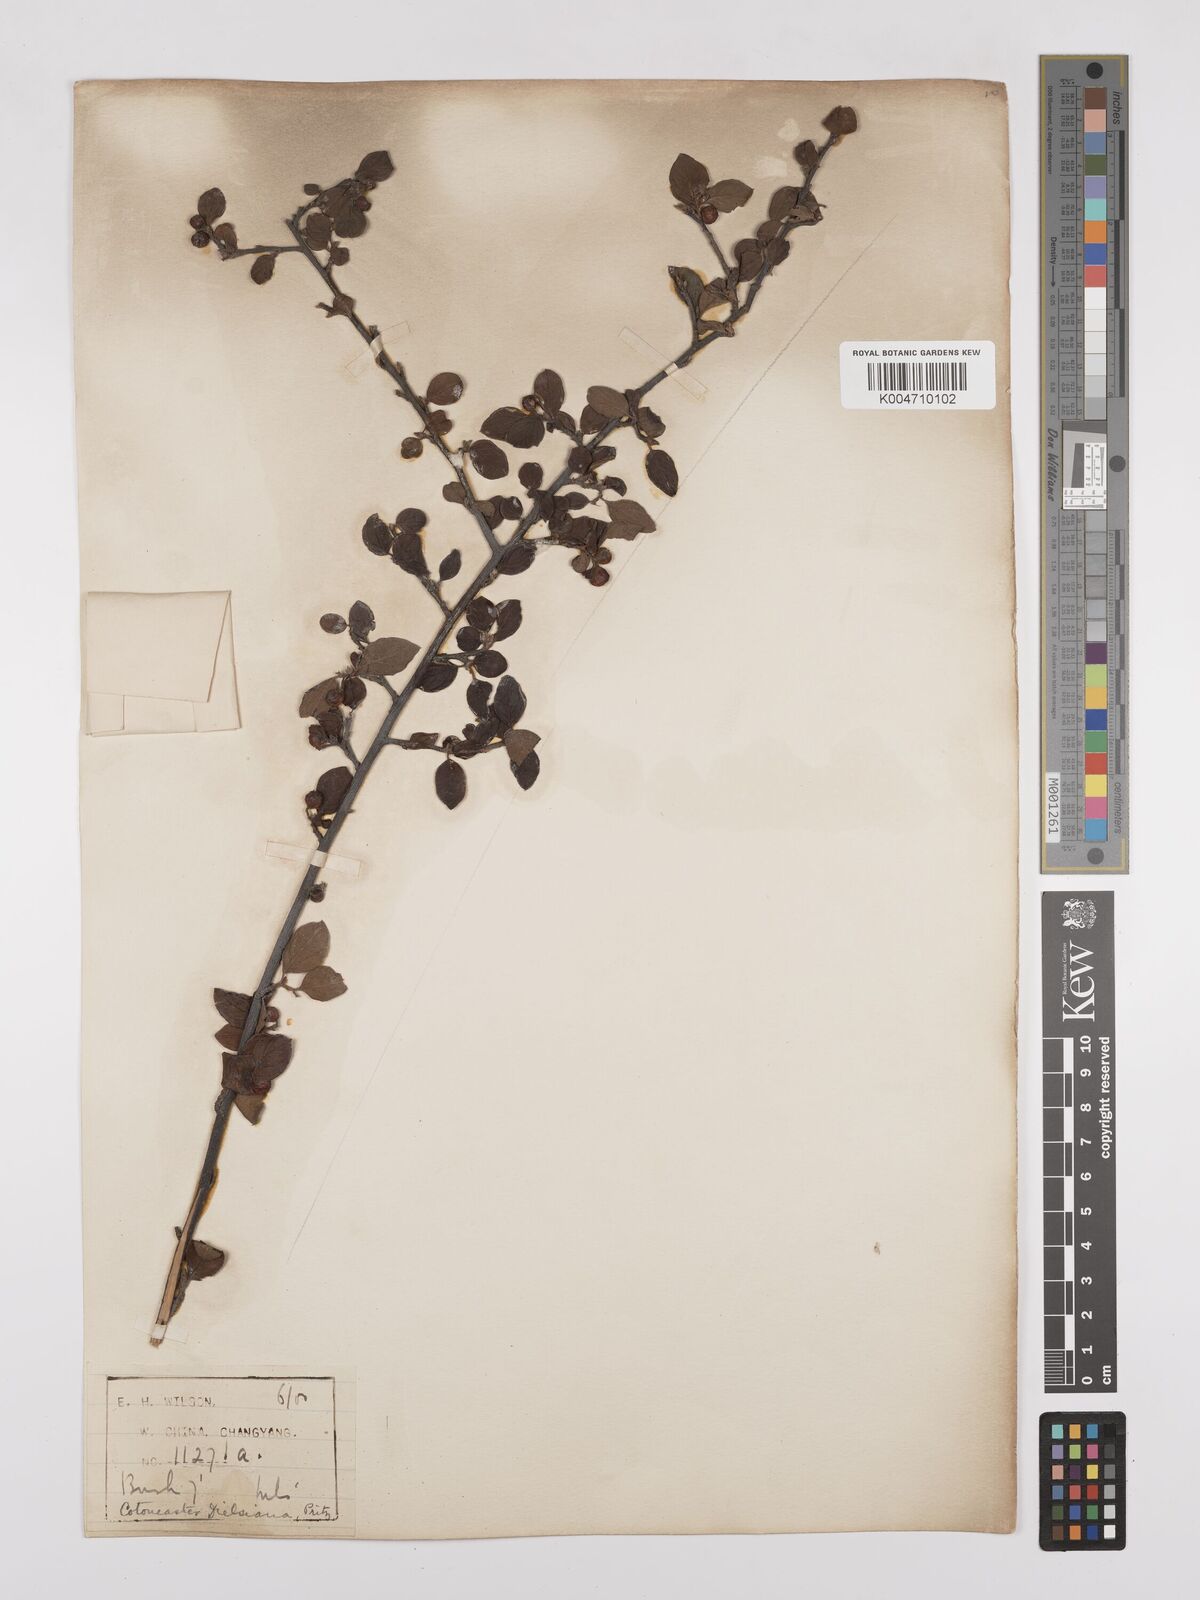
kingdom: Plantae
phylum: Tracheophyta
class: Magnoliopsida
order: Rosales
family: Rosaceae
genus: Cotoneaster
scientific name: Cotoneaster dielsianus
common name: Diels's cotoneaster
